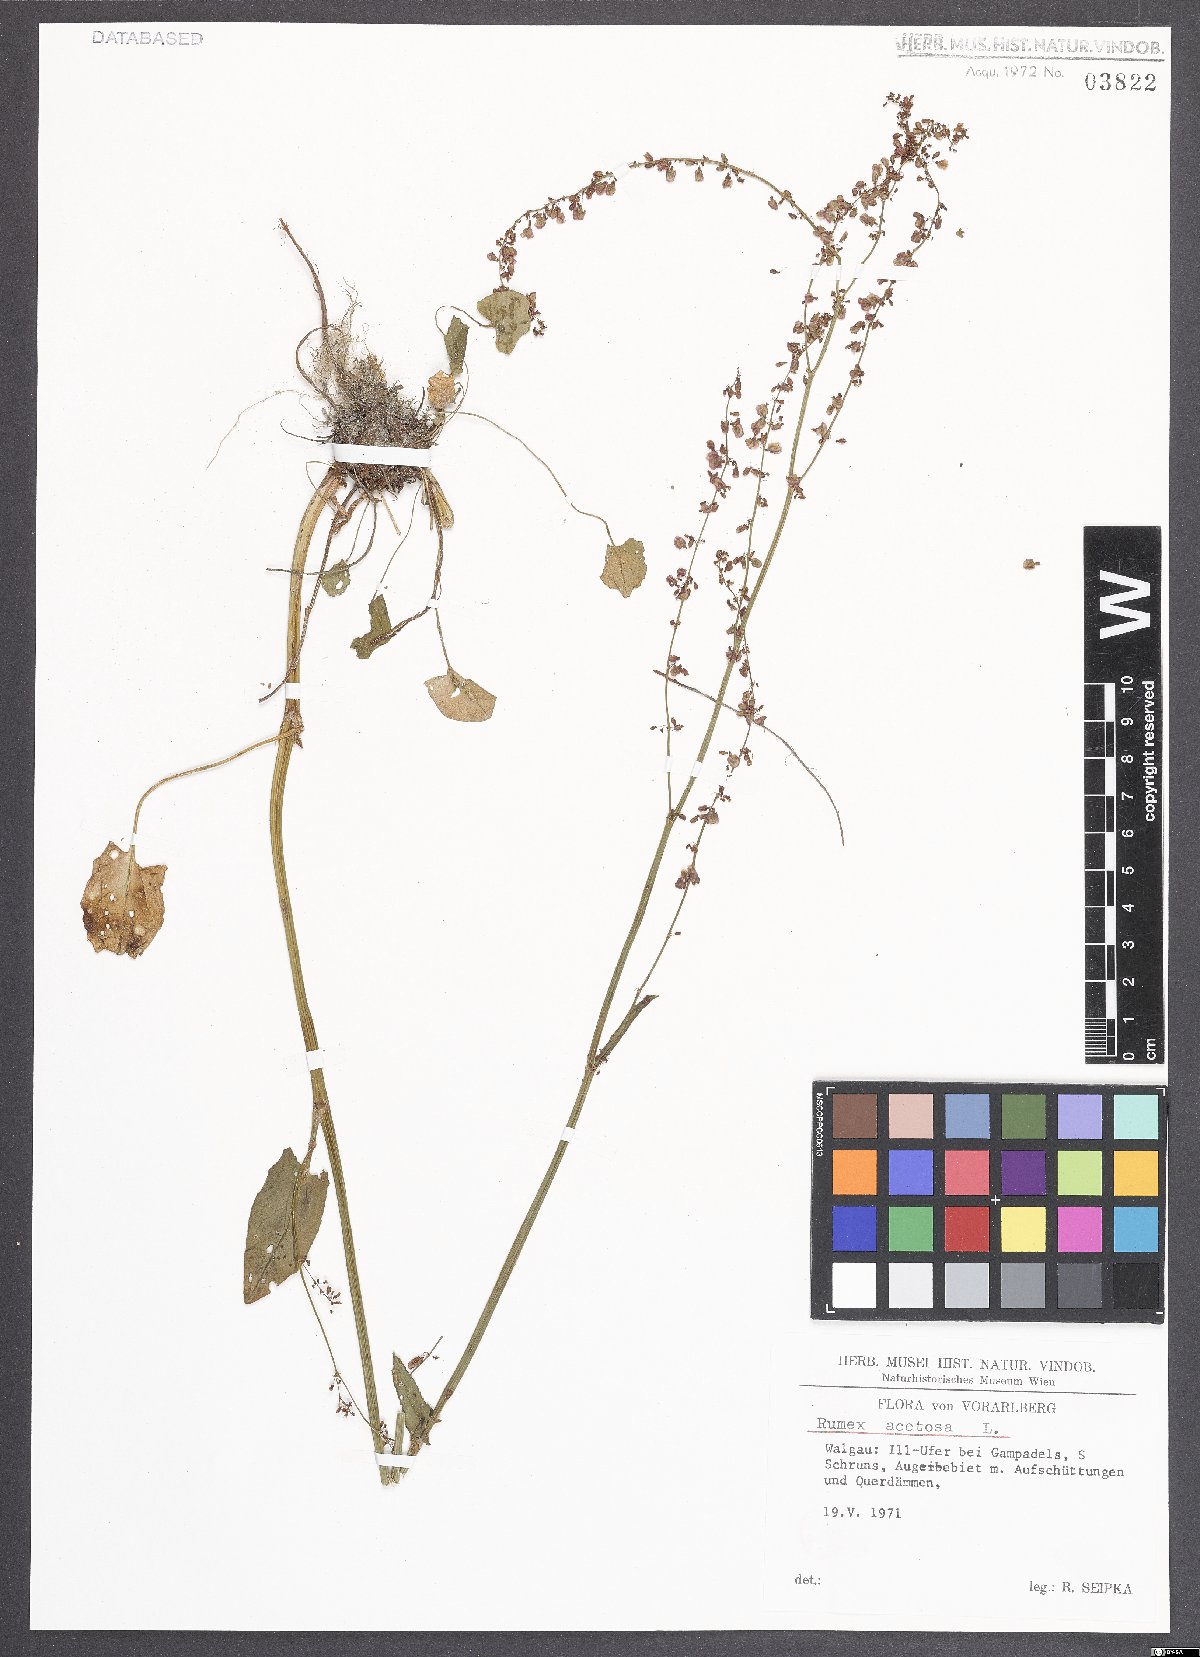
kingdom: Plantae
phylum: Tracheophyta
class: Magnoliopsida
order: Caryophyllales
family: Polygonaceae
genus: Rumex
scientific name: Rumex acetosa
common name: Garden sorrel
